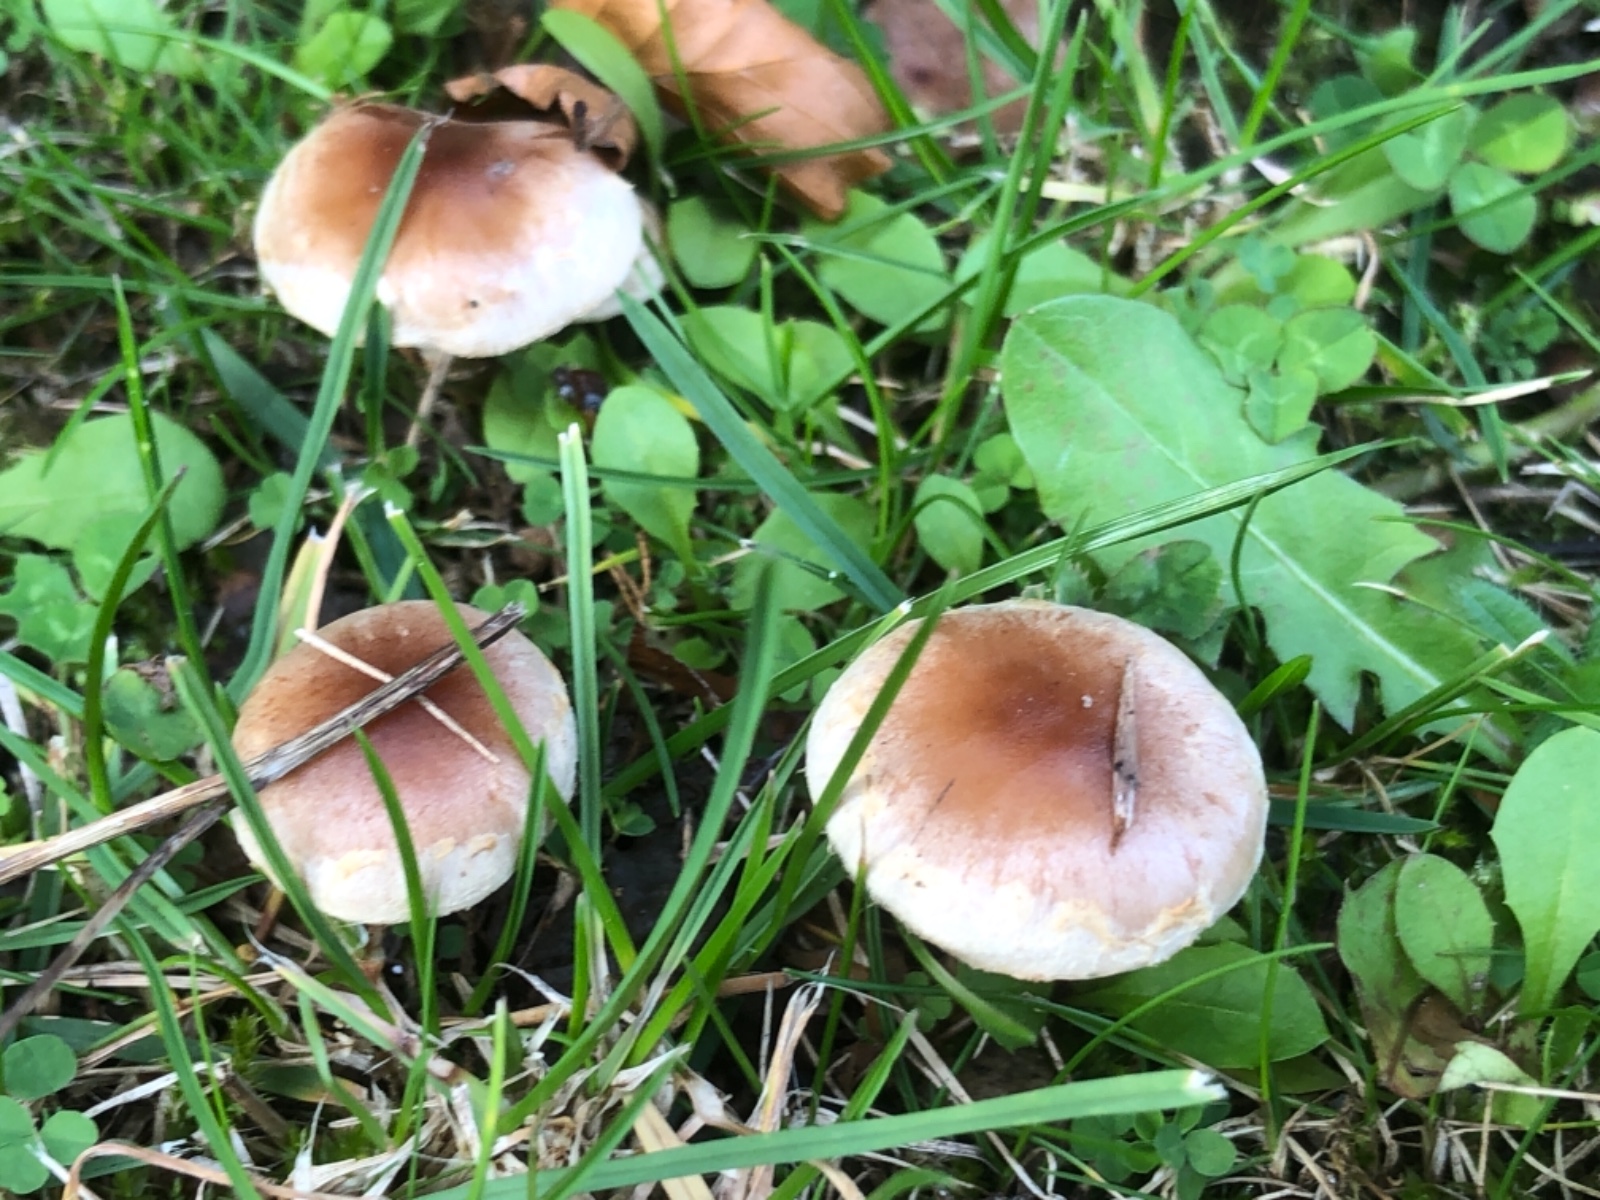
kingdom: Fungi
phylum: Basidiomycota
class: Agaricomycetes
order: Agaricales
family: Hymenogastraceae
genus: Hebeloma
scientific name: Hebeloma mesophaeum
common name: lerbrun tåreblad
